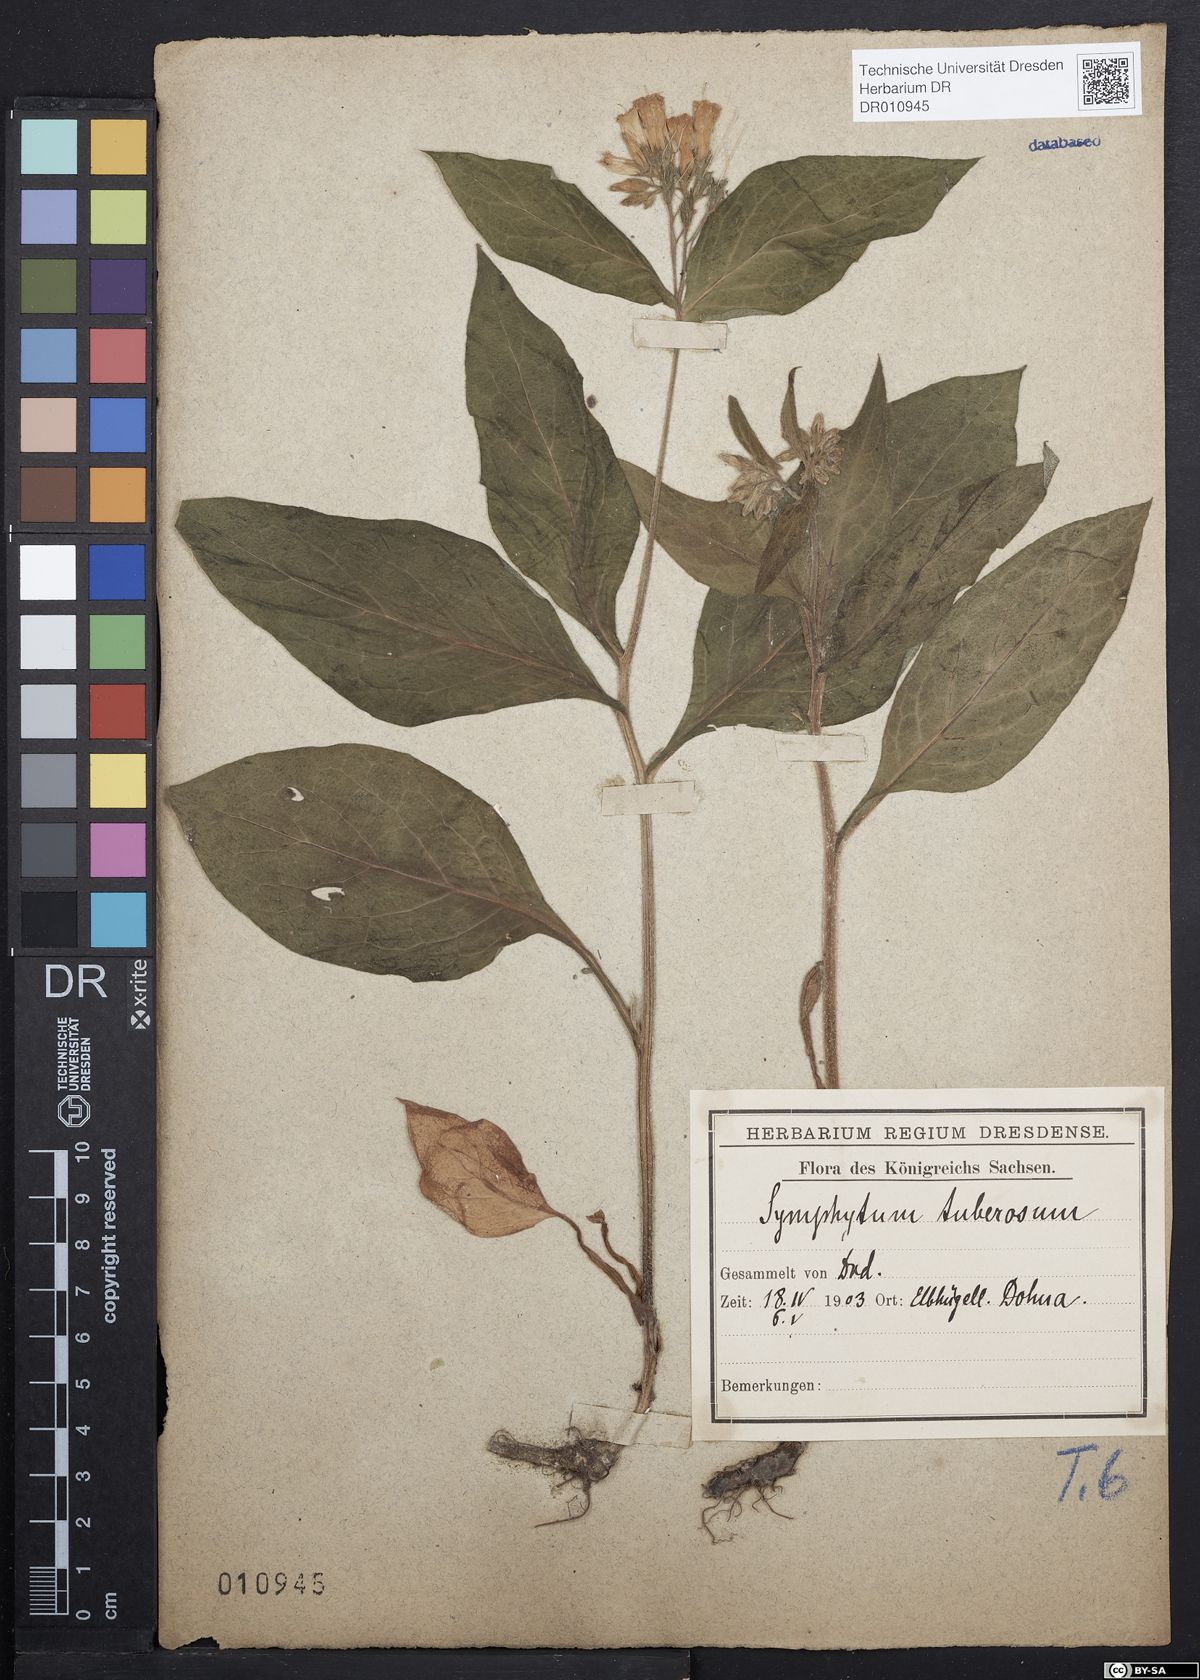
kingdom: Plantae
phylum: Tracheophyta
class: Magnoliopsida
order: Boraginales
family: Boraginaceae
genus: Symphytum
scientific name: Symphytum tuberosum
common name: Tuberous comfrey
